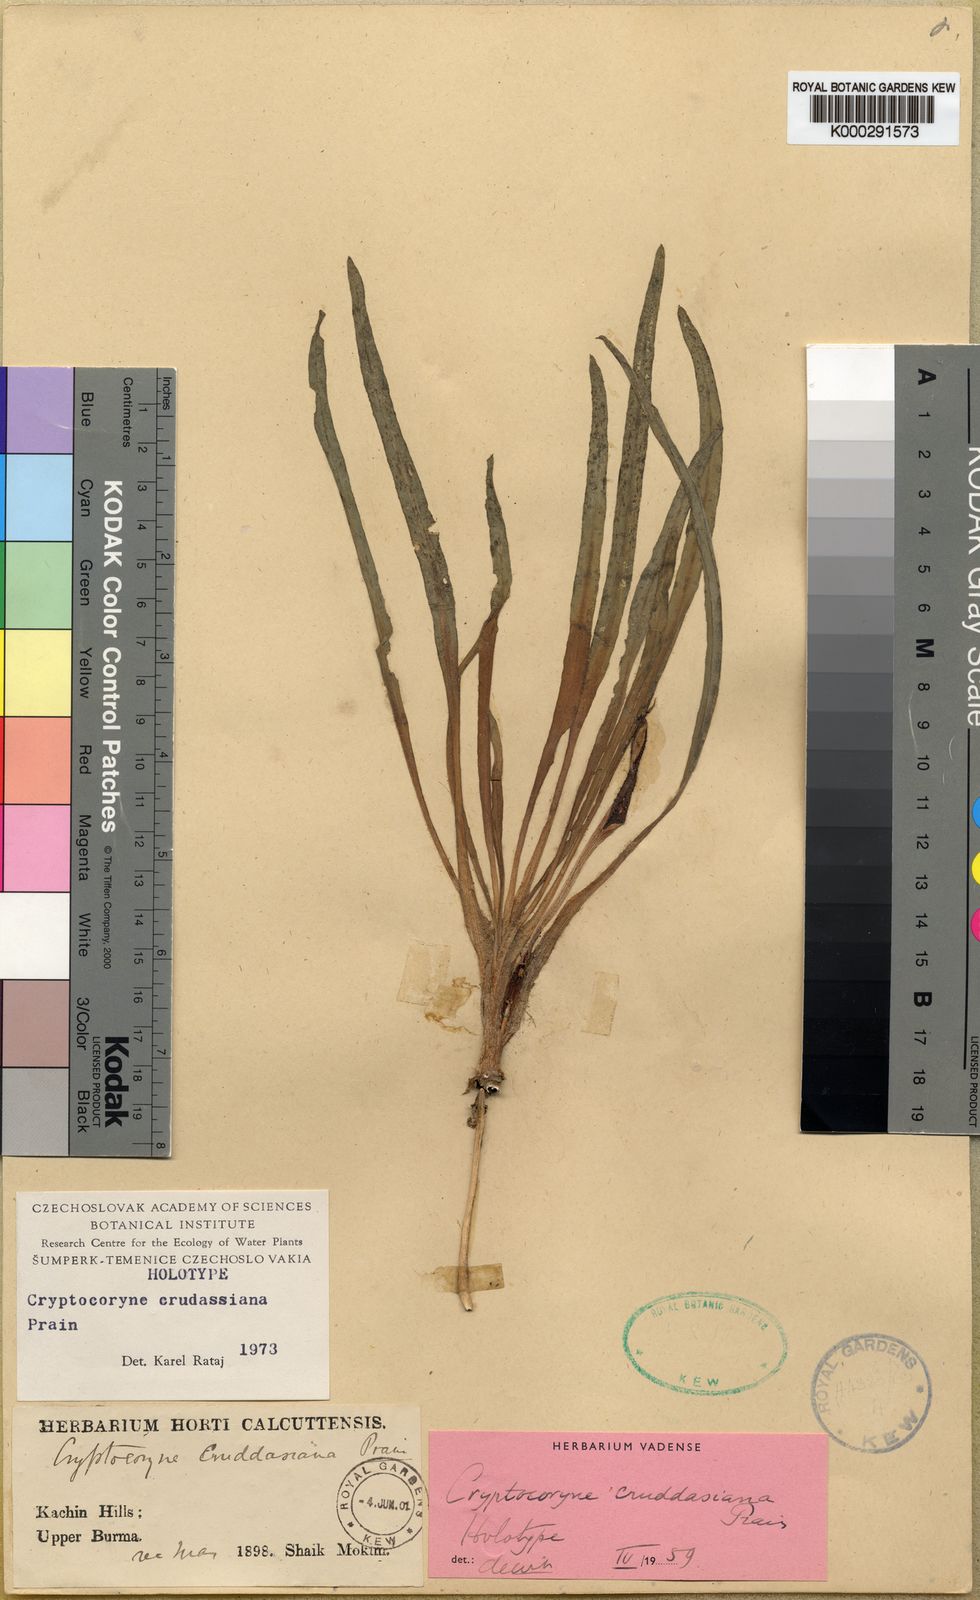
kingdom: Plantae
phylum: Tracheophyta
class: Liliopsida
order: Alismatales
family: Araceae
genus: Cryptocoryne
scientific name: Cryptocoryne cruddasiana
